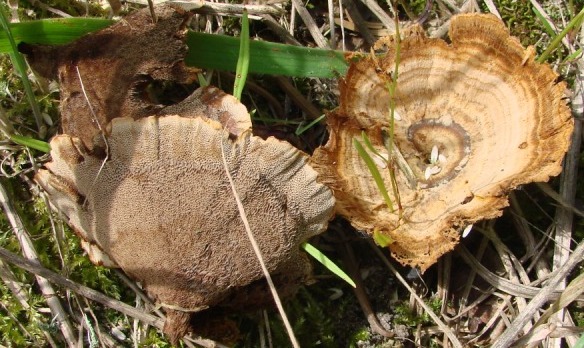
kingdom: Fungi
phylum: Basidiomycota
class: Agaricomycetes
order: Hymenochaetales
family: Hymenochaetaceae
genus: Coltricia
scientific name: Coltricia perennis
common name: almindelig sandporesvamp
